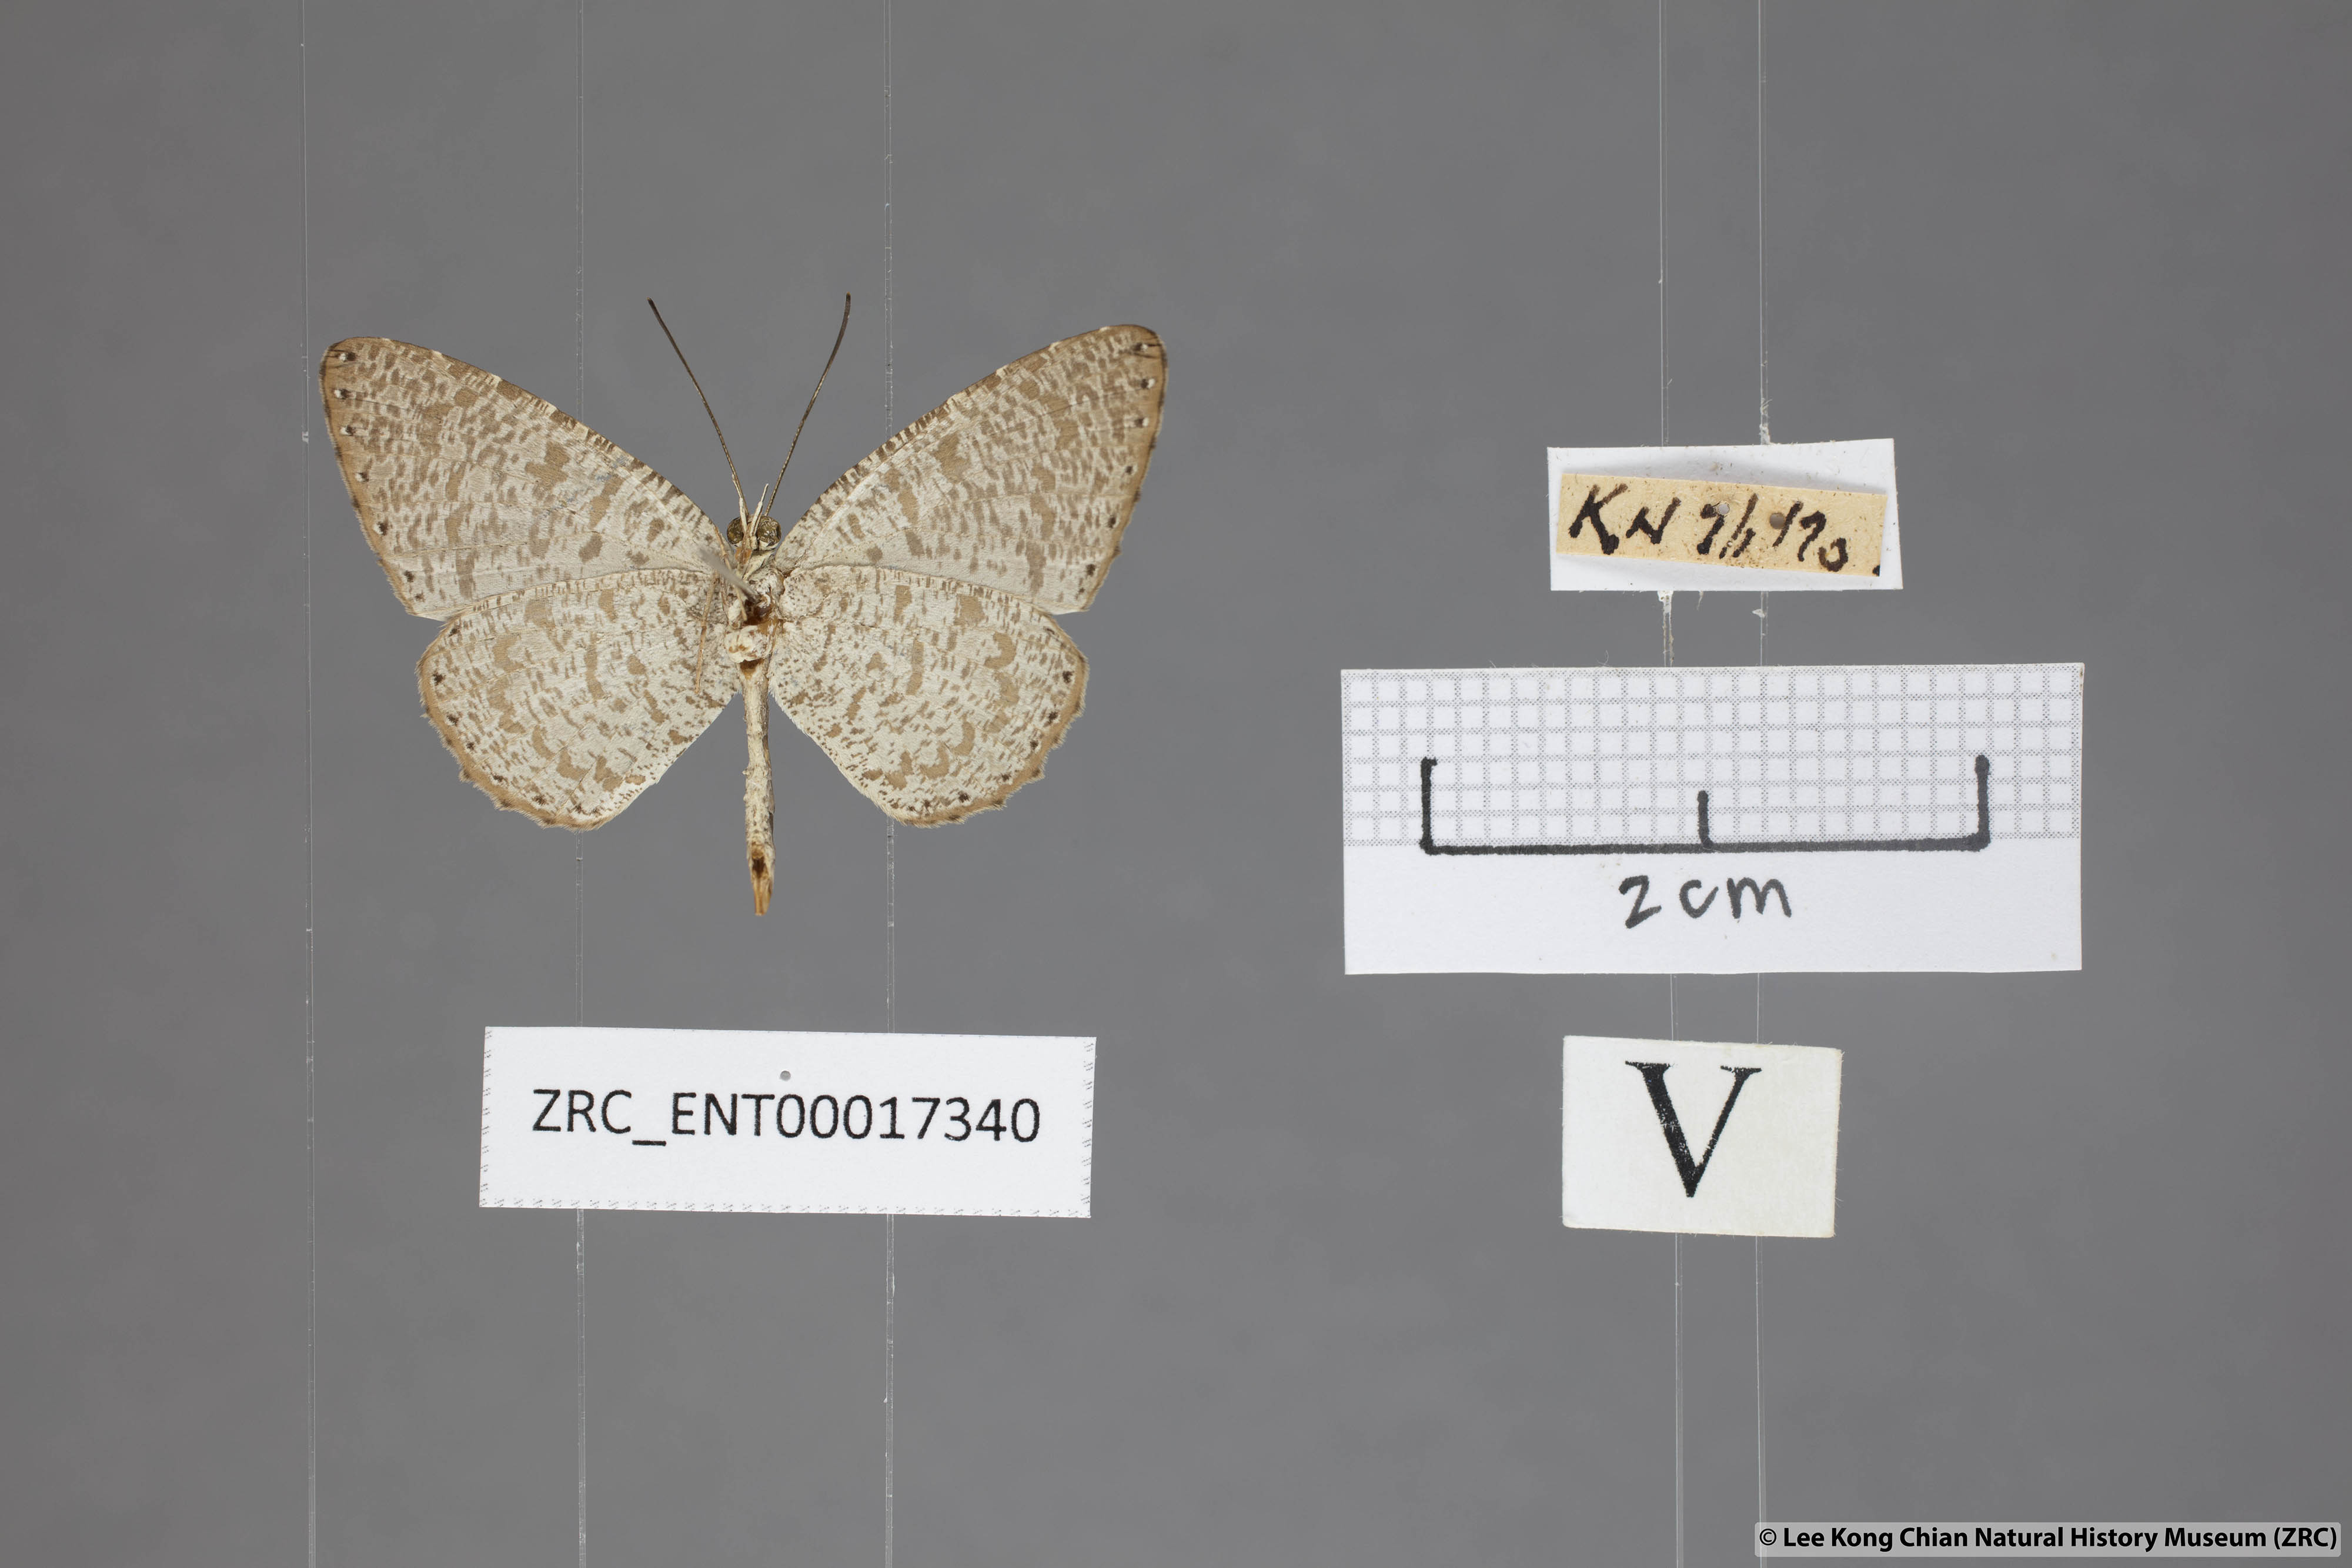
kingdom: Animalia
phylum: Arthropoda
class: Insecta
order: Lepidoptera
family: Lycaenidae
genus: Allotinus
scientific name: Allotinus sarastes
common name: Peninsular darkie
